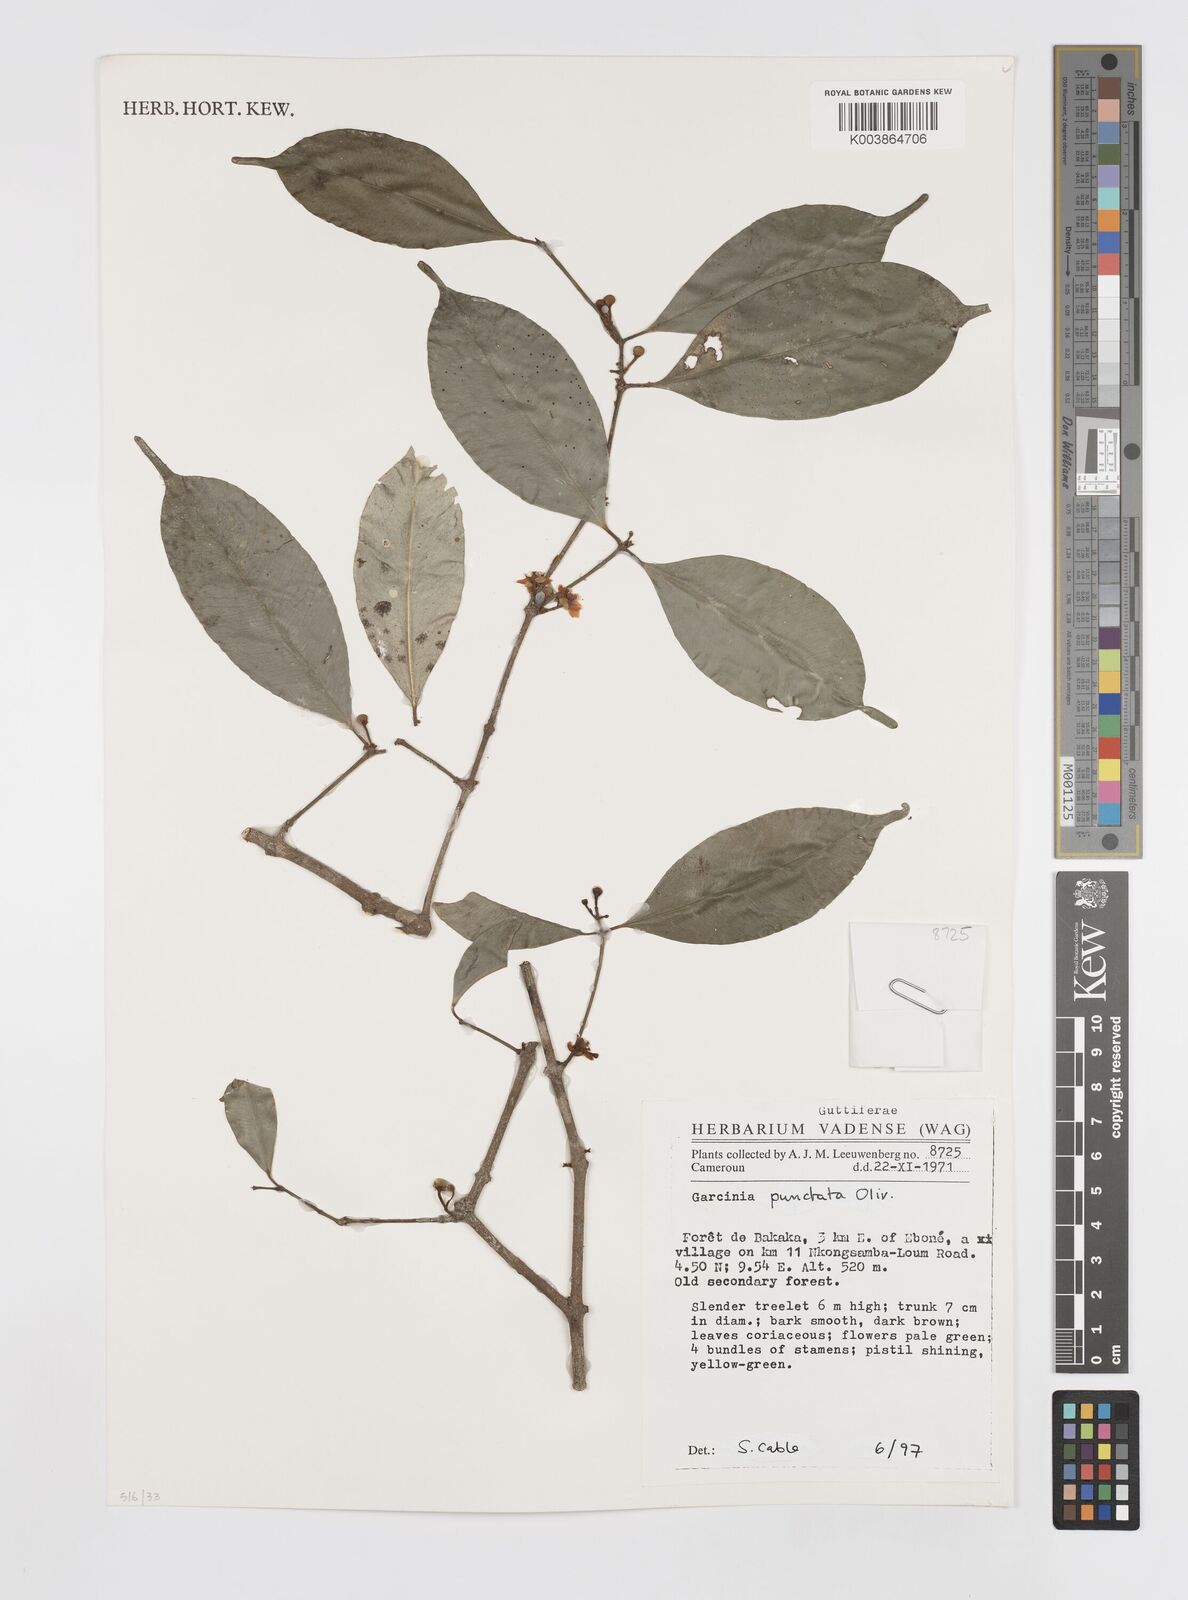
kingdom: Plantae
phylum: Tracheophyta
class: Magnoliopsida
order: Malpighiales
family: Clusiaceae
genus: Garcinia
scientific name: Garcinia punctata
